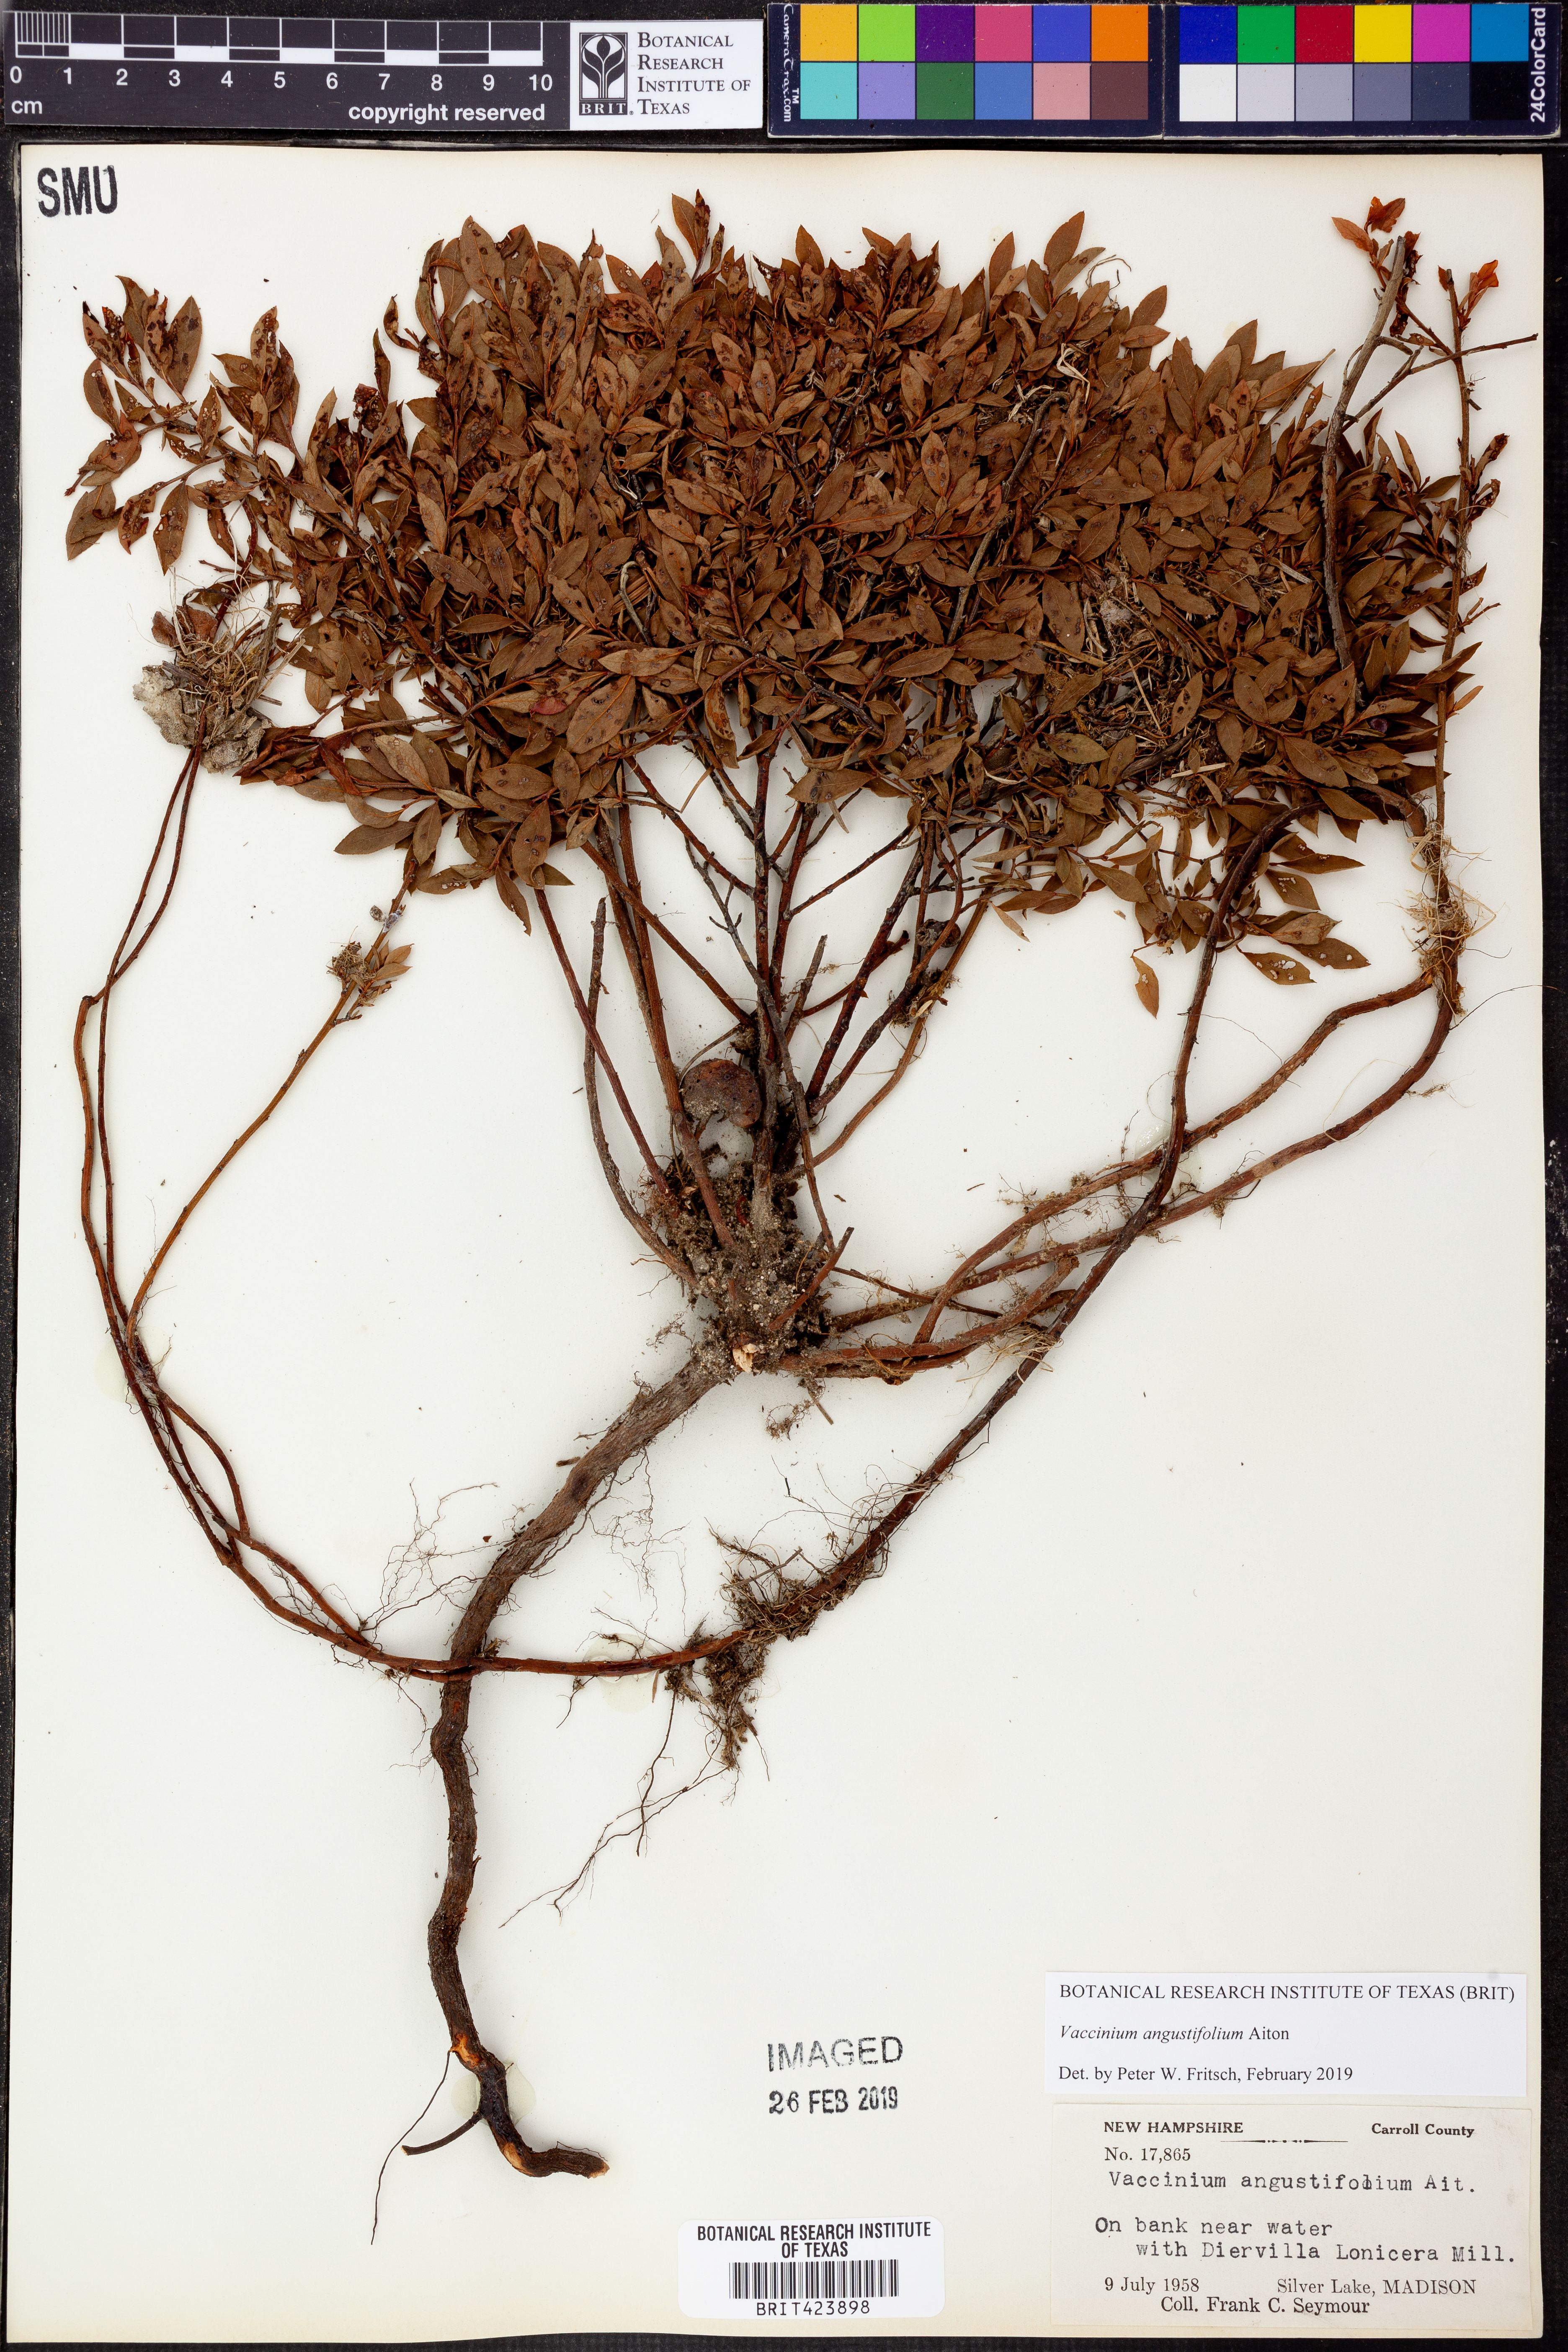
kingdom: Plantae
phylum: Tracheophyta
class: Magnoliopsida
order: Ericales
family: Ericaceae
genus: Vaccinium
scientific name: Vaccinium angustifolium
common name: Early lowbush blueberry
